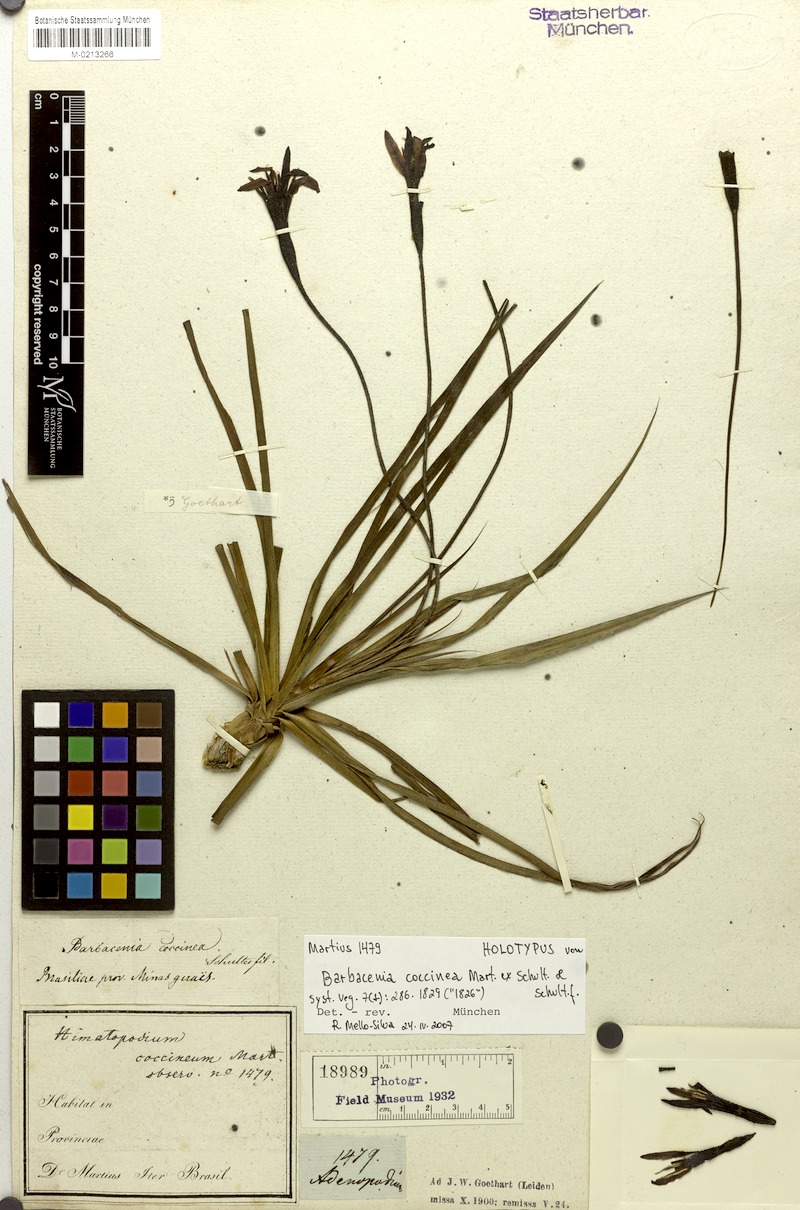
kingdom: Plantae
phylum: Tracheophyta
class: Liliopsida
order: Pandanales
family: Velloziaceae
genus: Barbacenia
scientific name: Barbacenia coccinea
